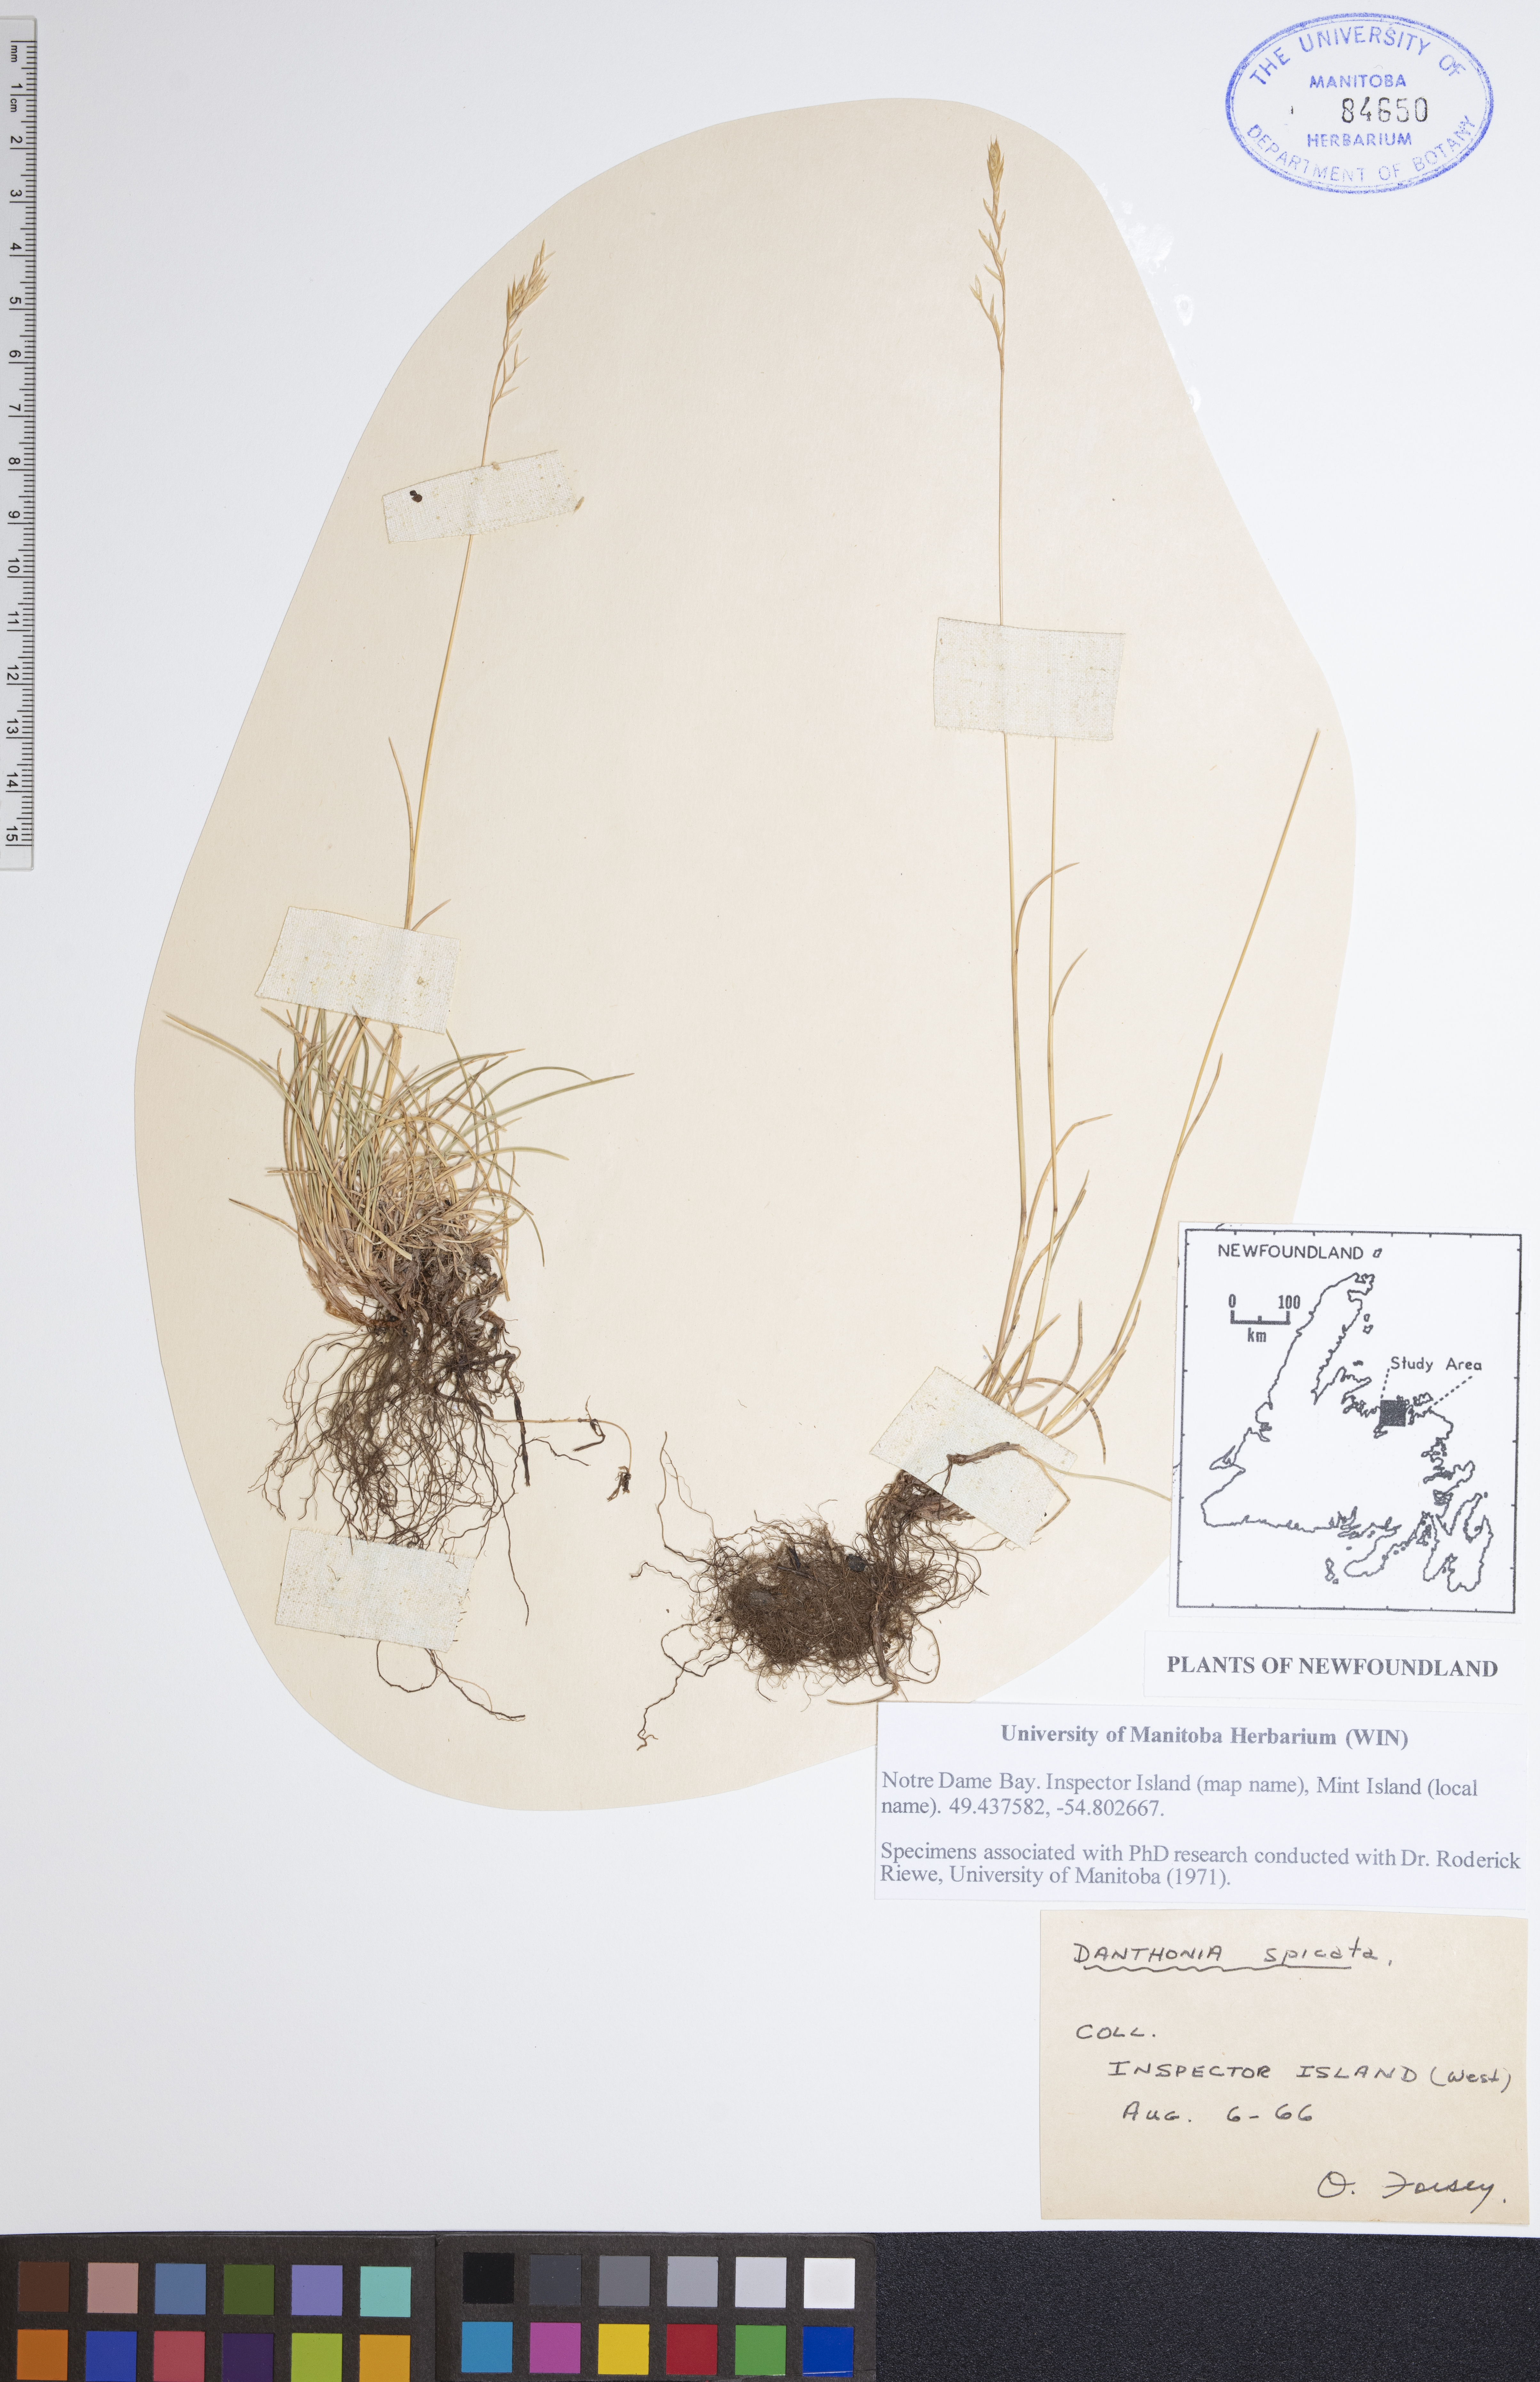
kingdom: Plantae
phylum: Tracheophyta
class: Liliopsida
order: Poales
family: Poaceae
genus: Danthonia
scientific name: Danthonia spicata
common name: Common wild oatgrass
